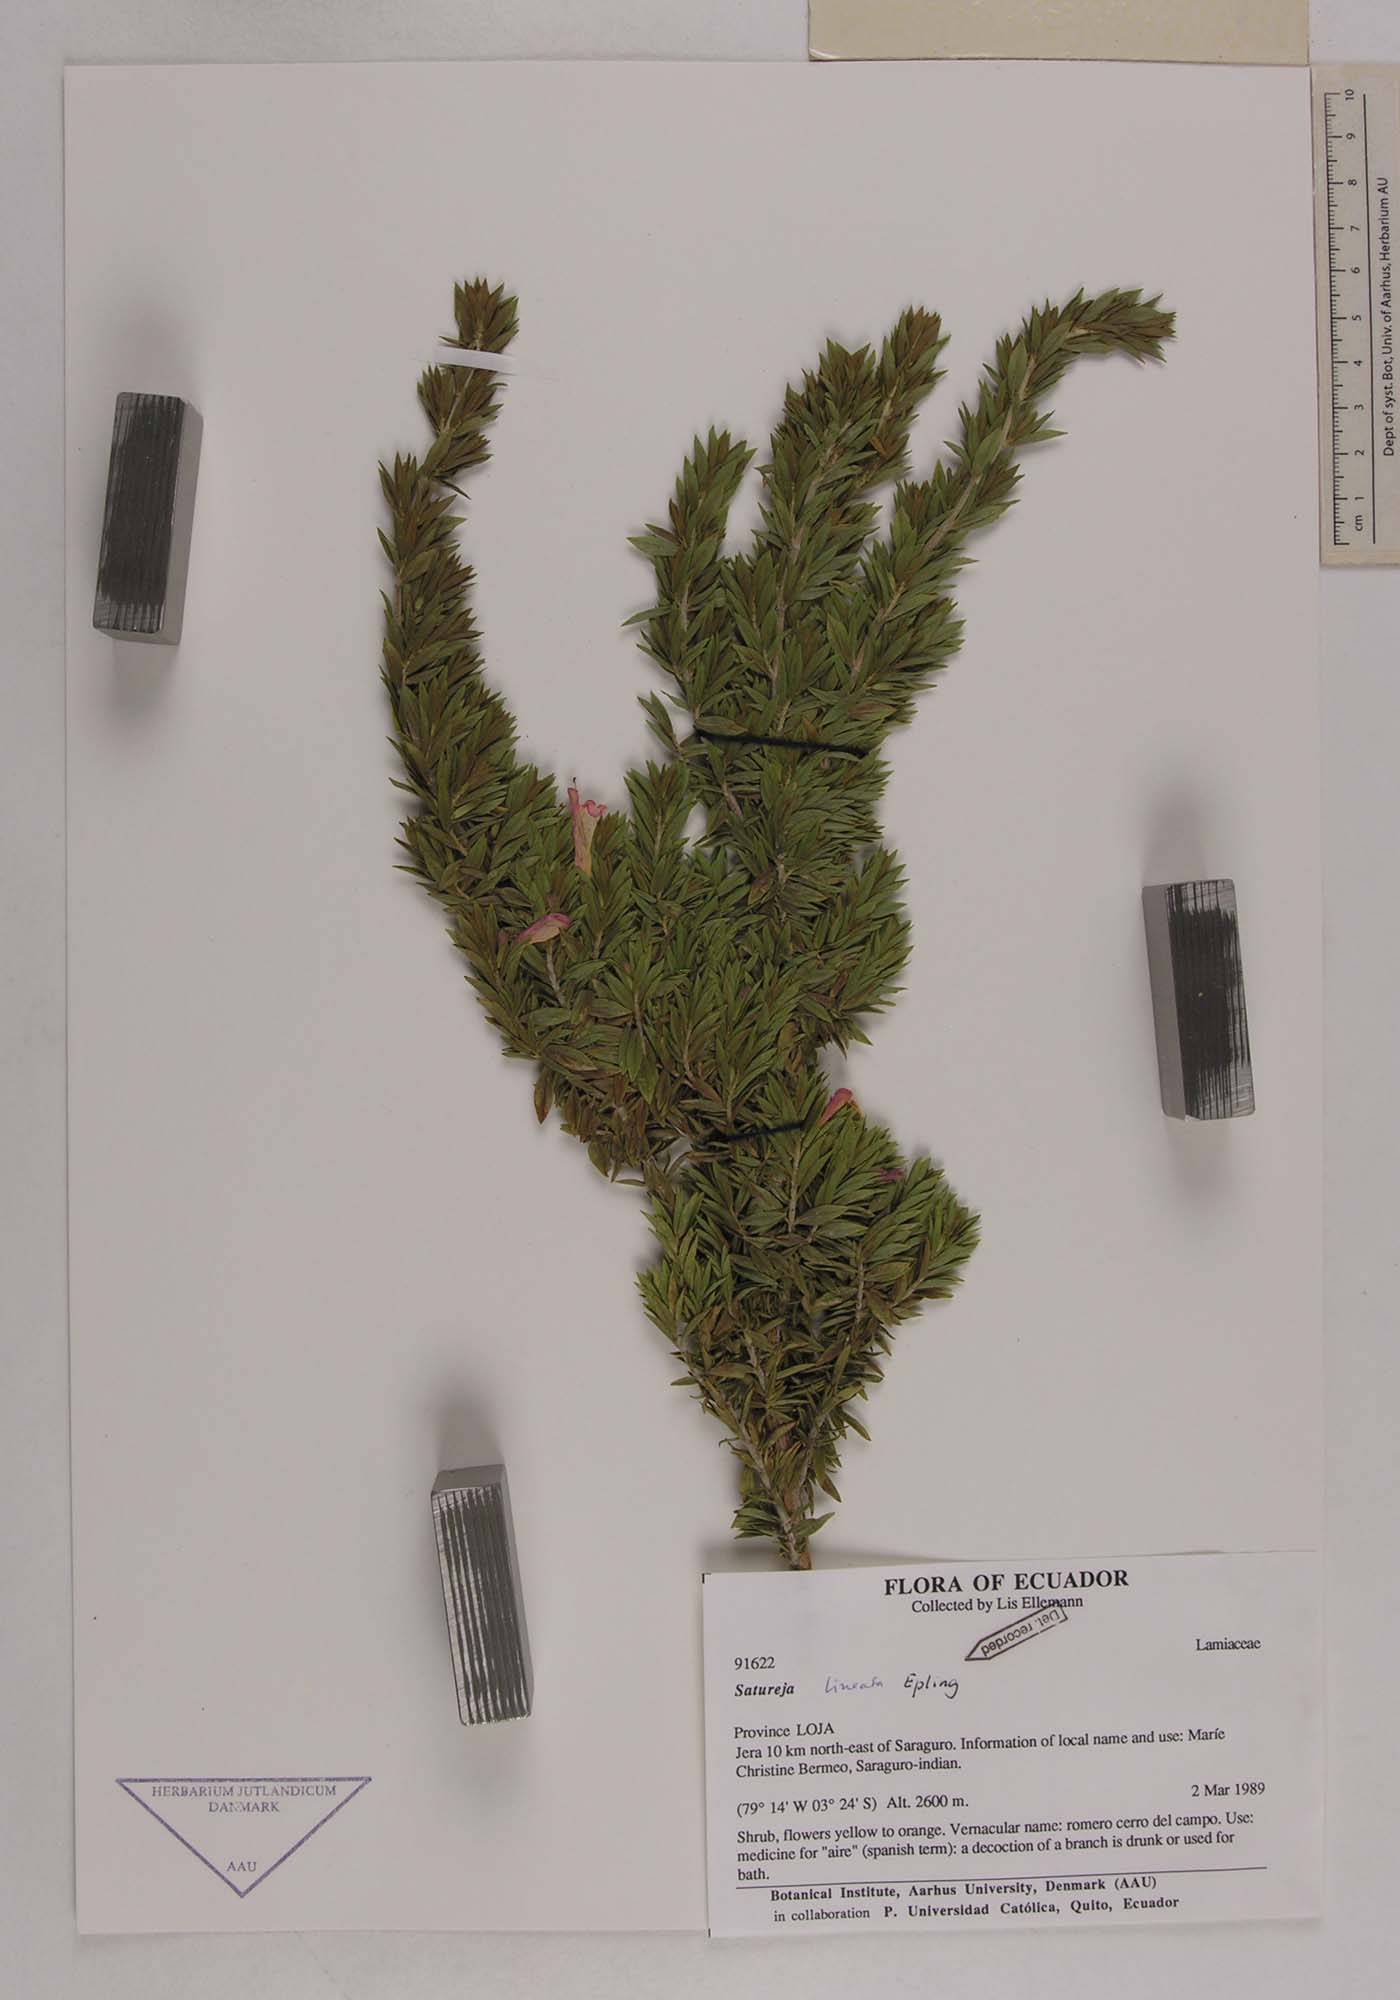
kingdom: Plantae
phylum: Tracheophyta
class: Magnoliopsida
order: Lamiales
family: Lamiaceae
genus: Clinopodium
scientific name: Clinopodium taxifolium
